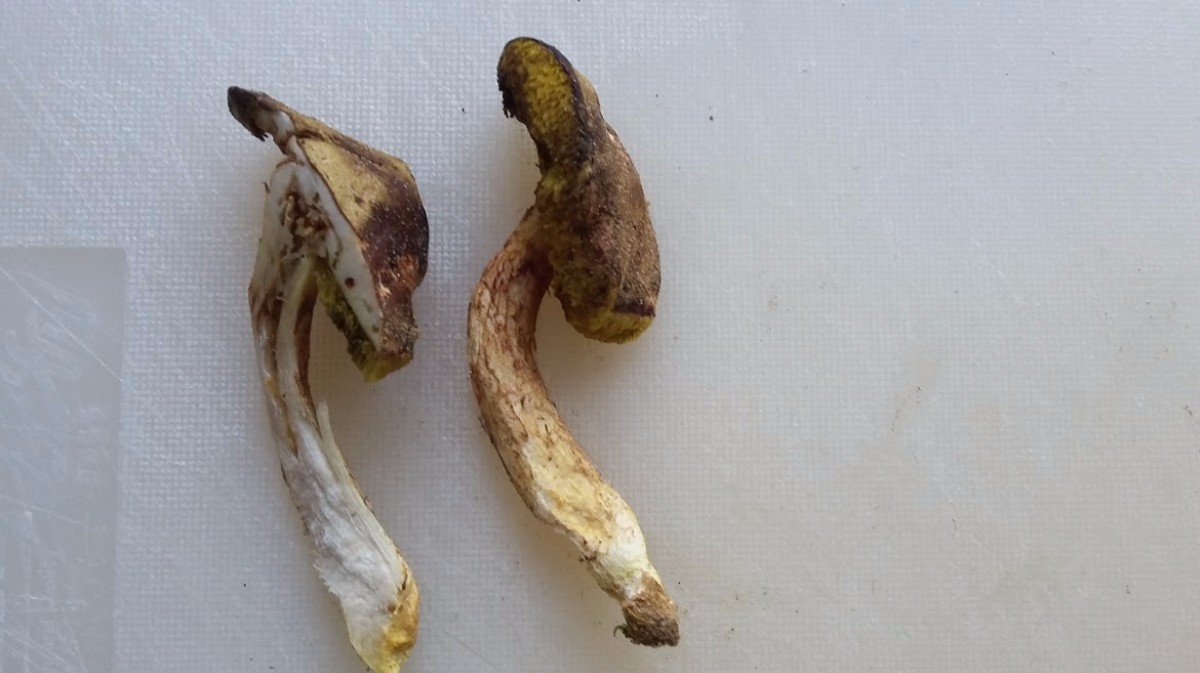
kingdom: Fungi
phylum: Basidiomycota
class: Agaricomycetes
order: Boletales
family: Boletaceae
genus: Xerocomus
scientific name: Xerocomus ferrugineus
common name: vaskeskinds-rørhat
